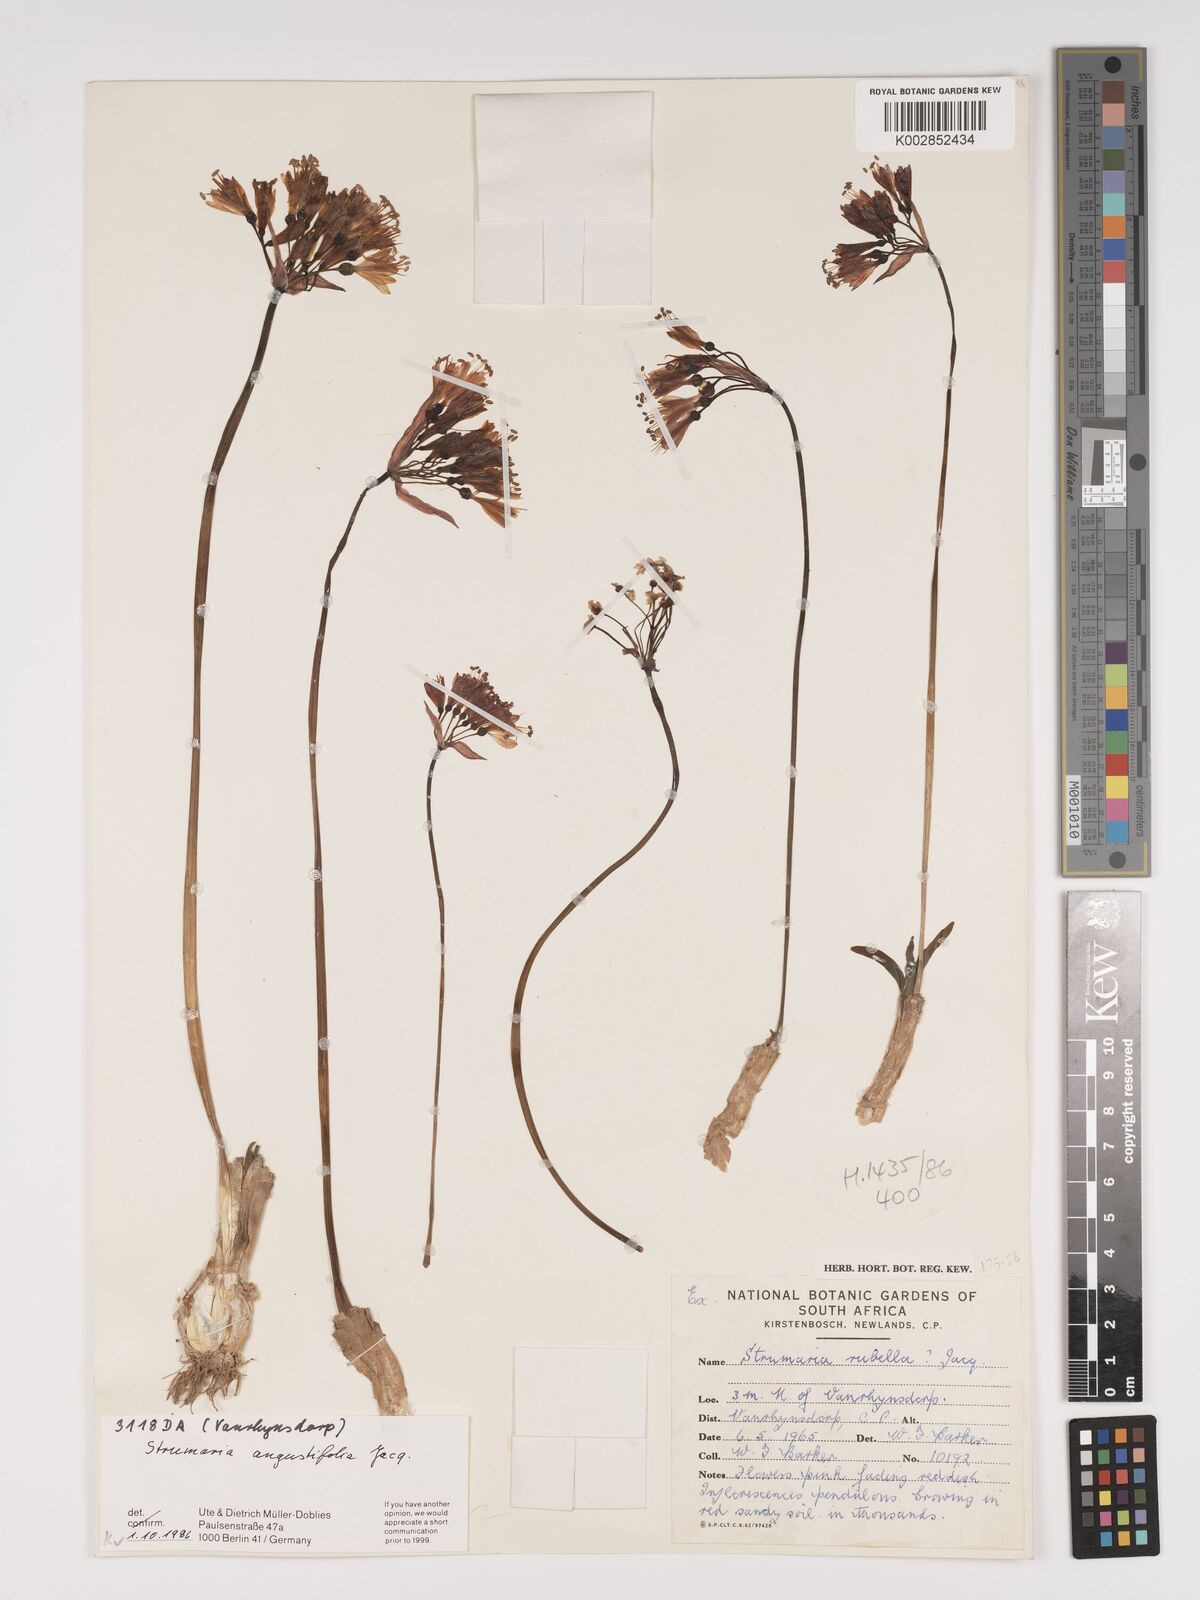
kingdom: Plantae
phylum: Tracheophyta
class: Liliopsida
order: Asparagales
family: Amaryllidaceae
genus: Strumaria
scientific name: Strumaria truncata
